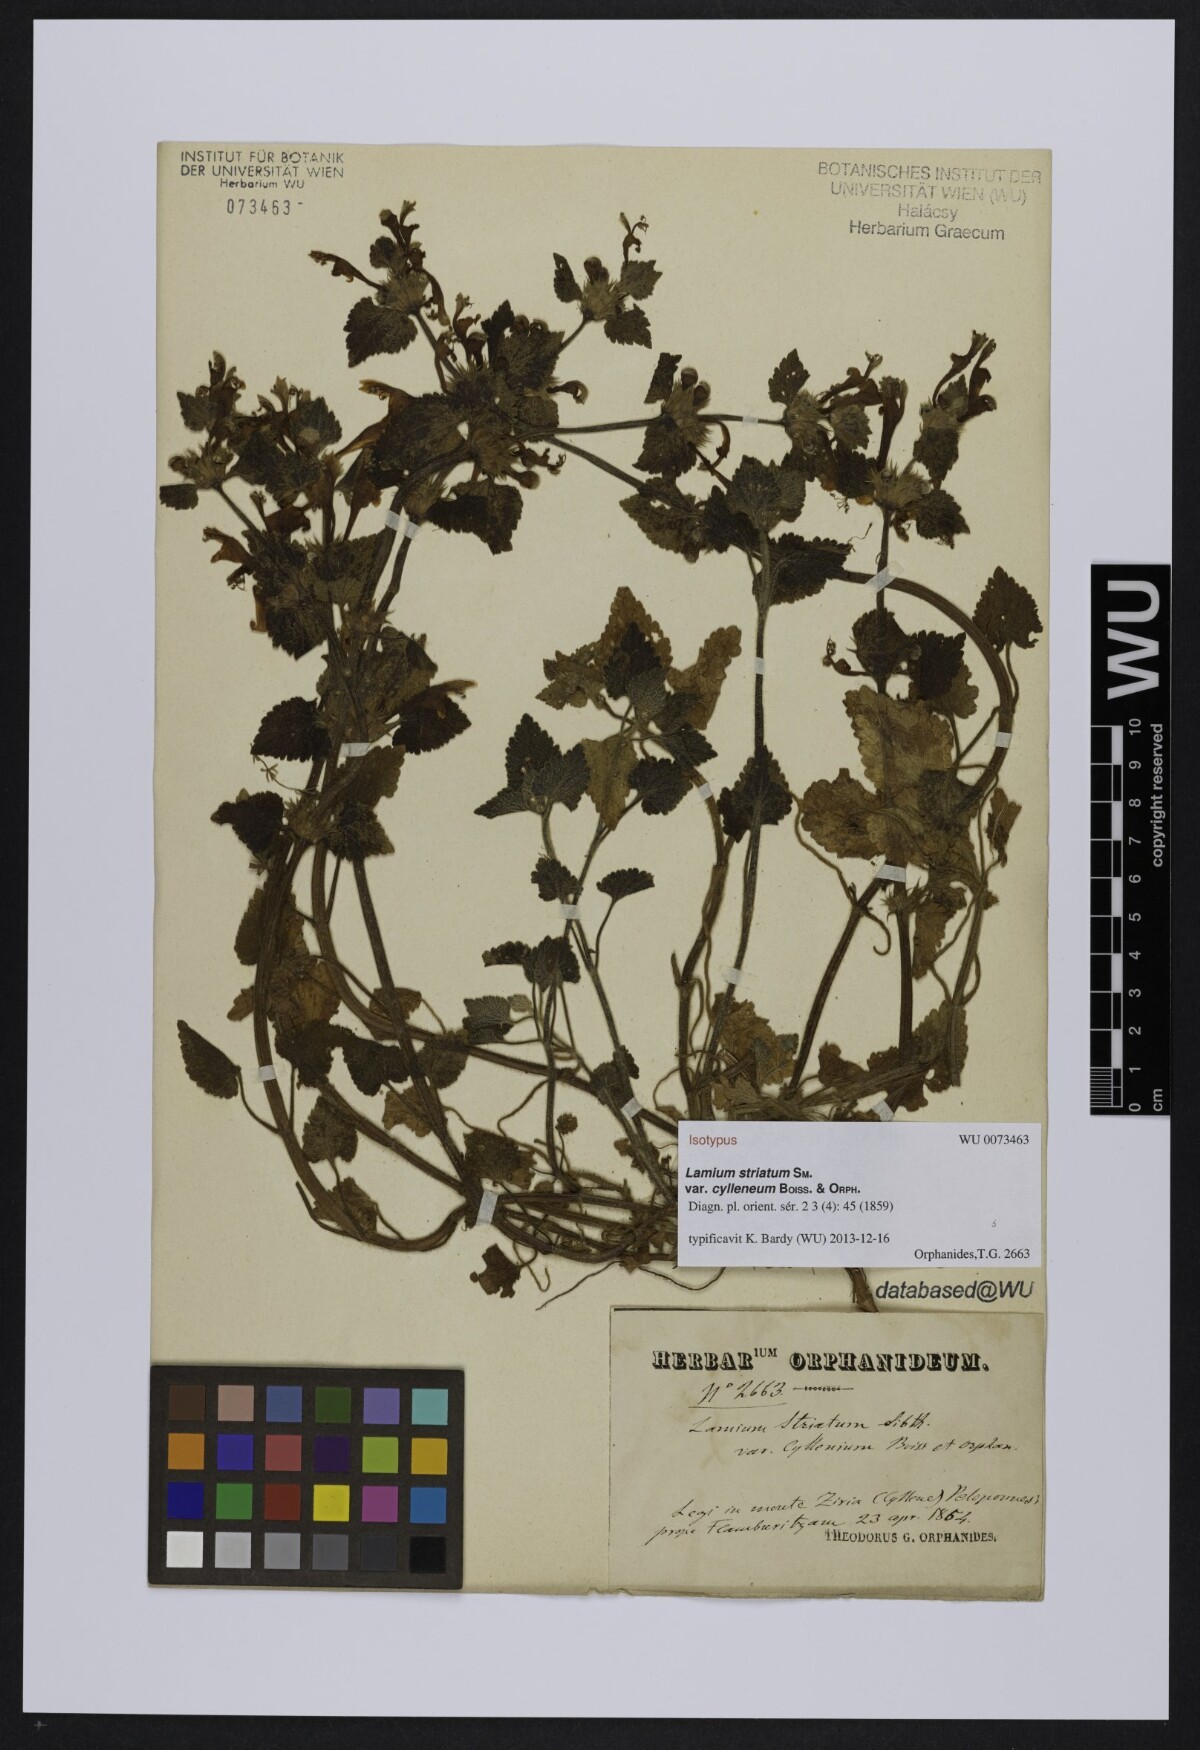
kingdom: Plantae
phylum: Tracheophyta
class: Magnoliopsida
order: Lamiales
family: Lamiaceae
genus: Lamium
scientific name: Lamium garganicum
